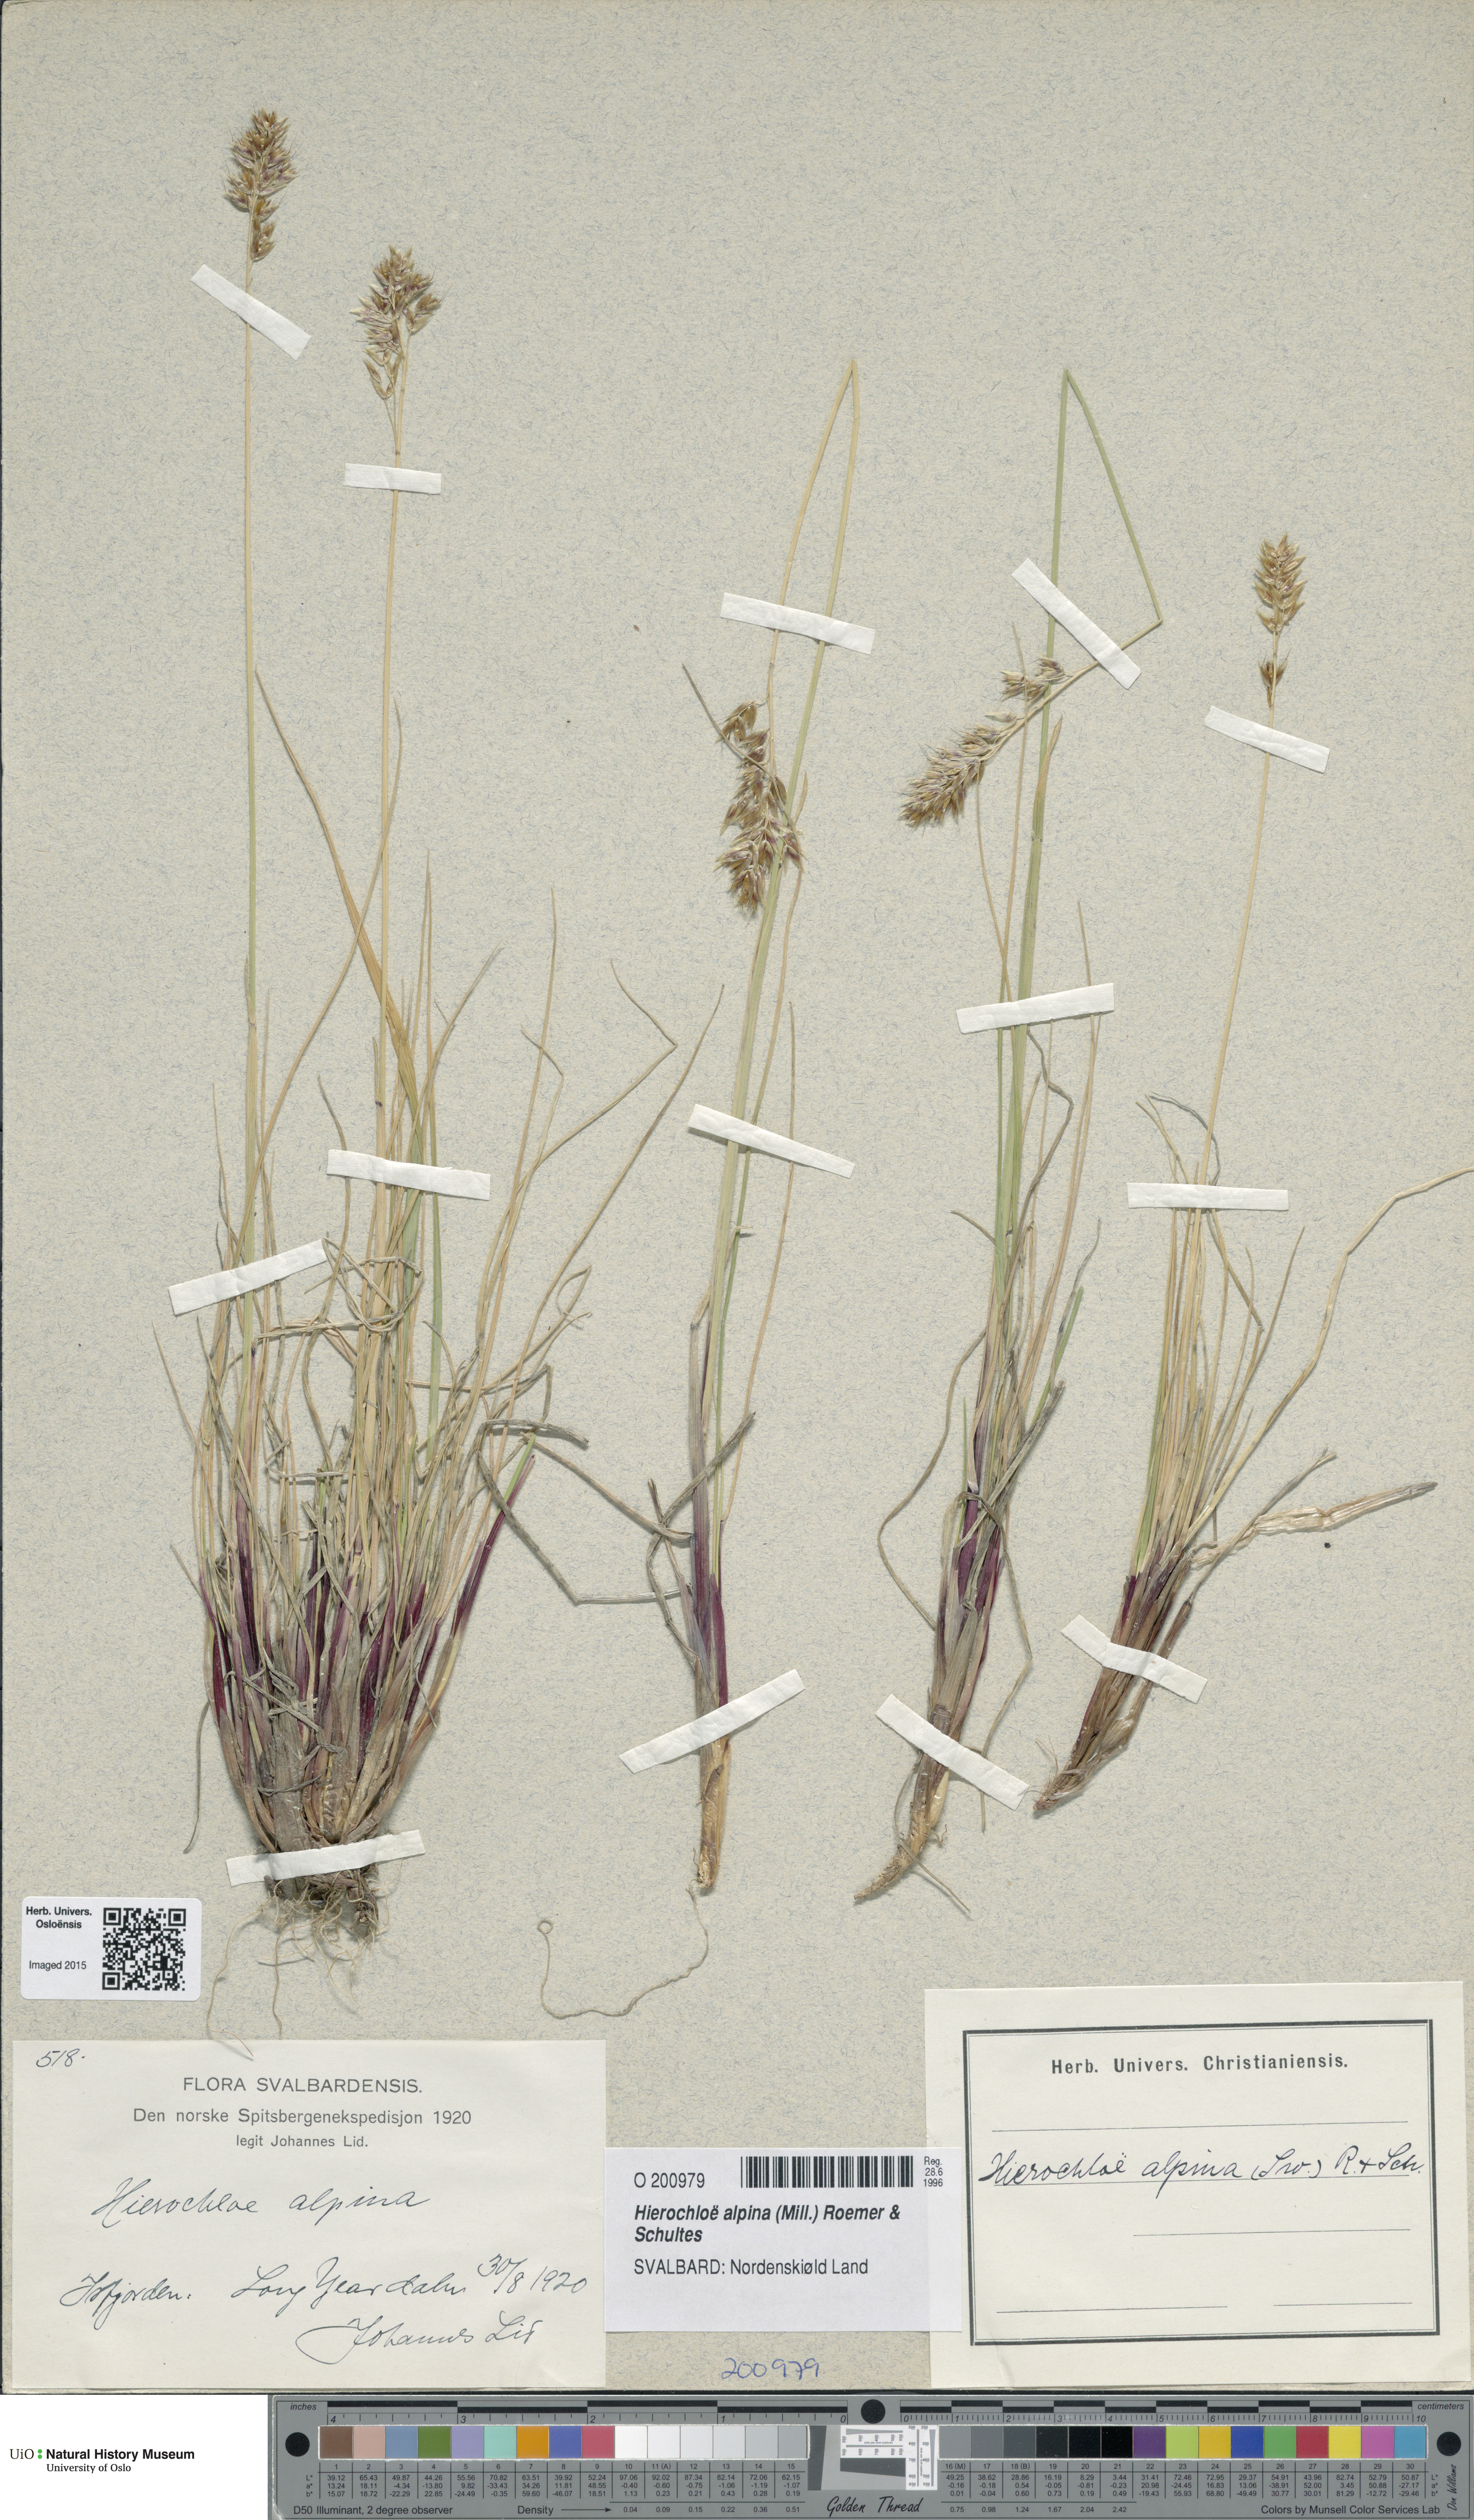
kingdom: Plantae
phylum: Tracheophyta
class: Liliopsida
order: Poales
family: Poaceae
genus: Anthoxanthum
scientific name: Anthoxanthum monticola
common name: Alpine sweetgrass
